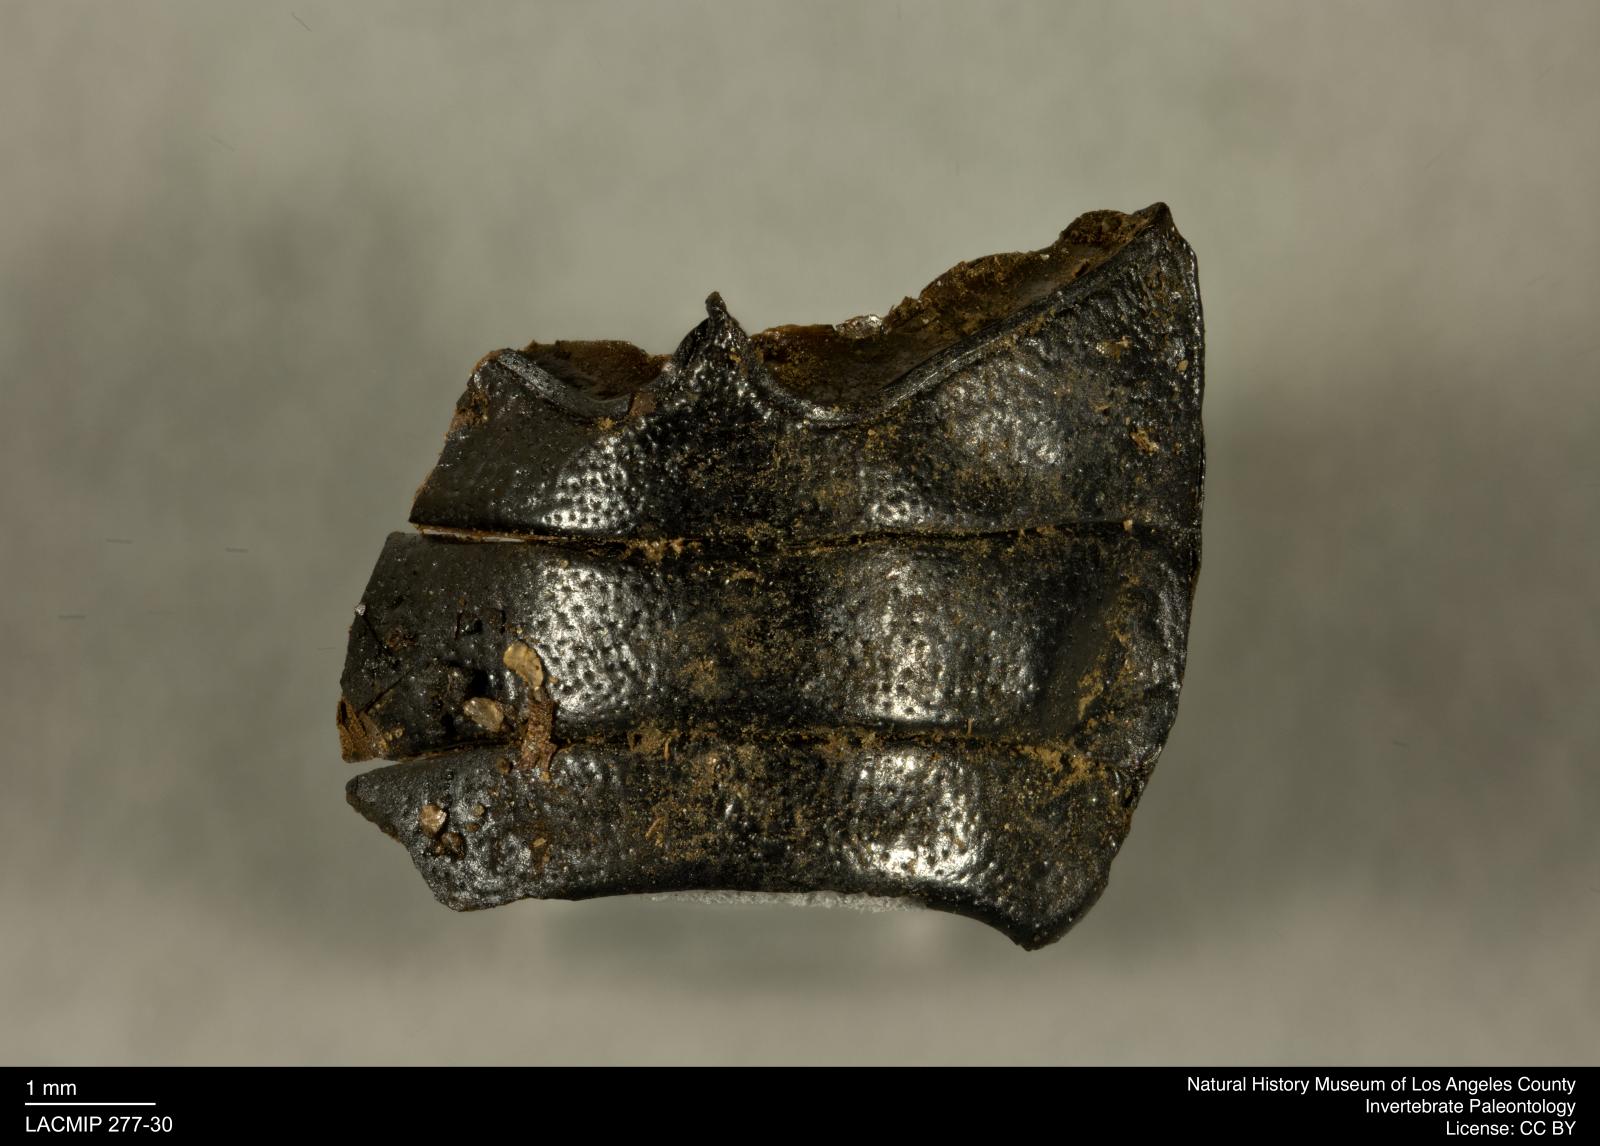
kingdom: Animalia
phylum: Arthropoda
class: Insecta
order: Coleoptera
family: Tenebrionidae
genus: Coniontis
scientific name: Coniontis abdominalis
